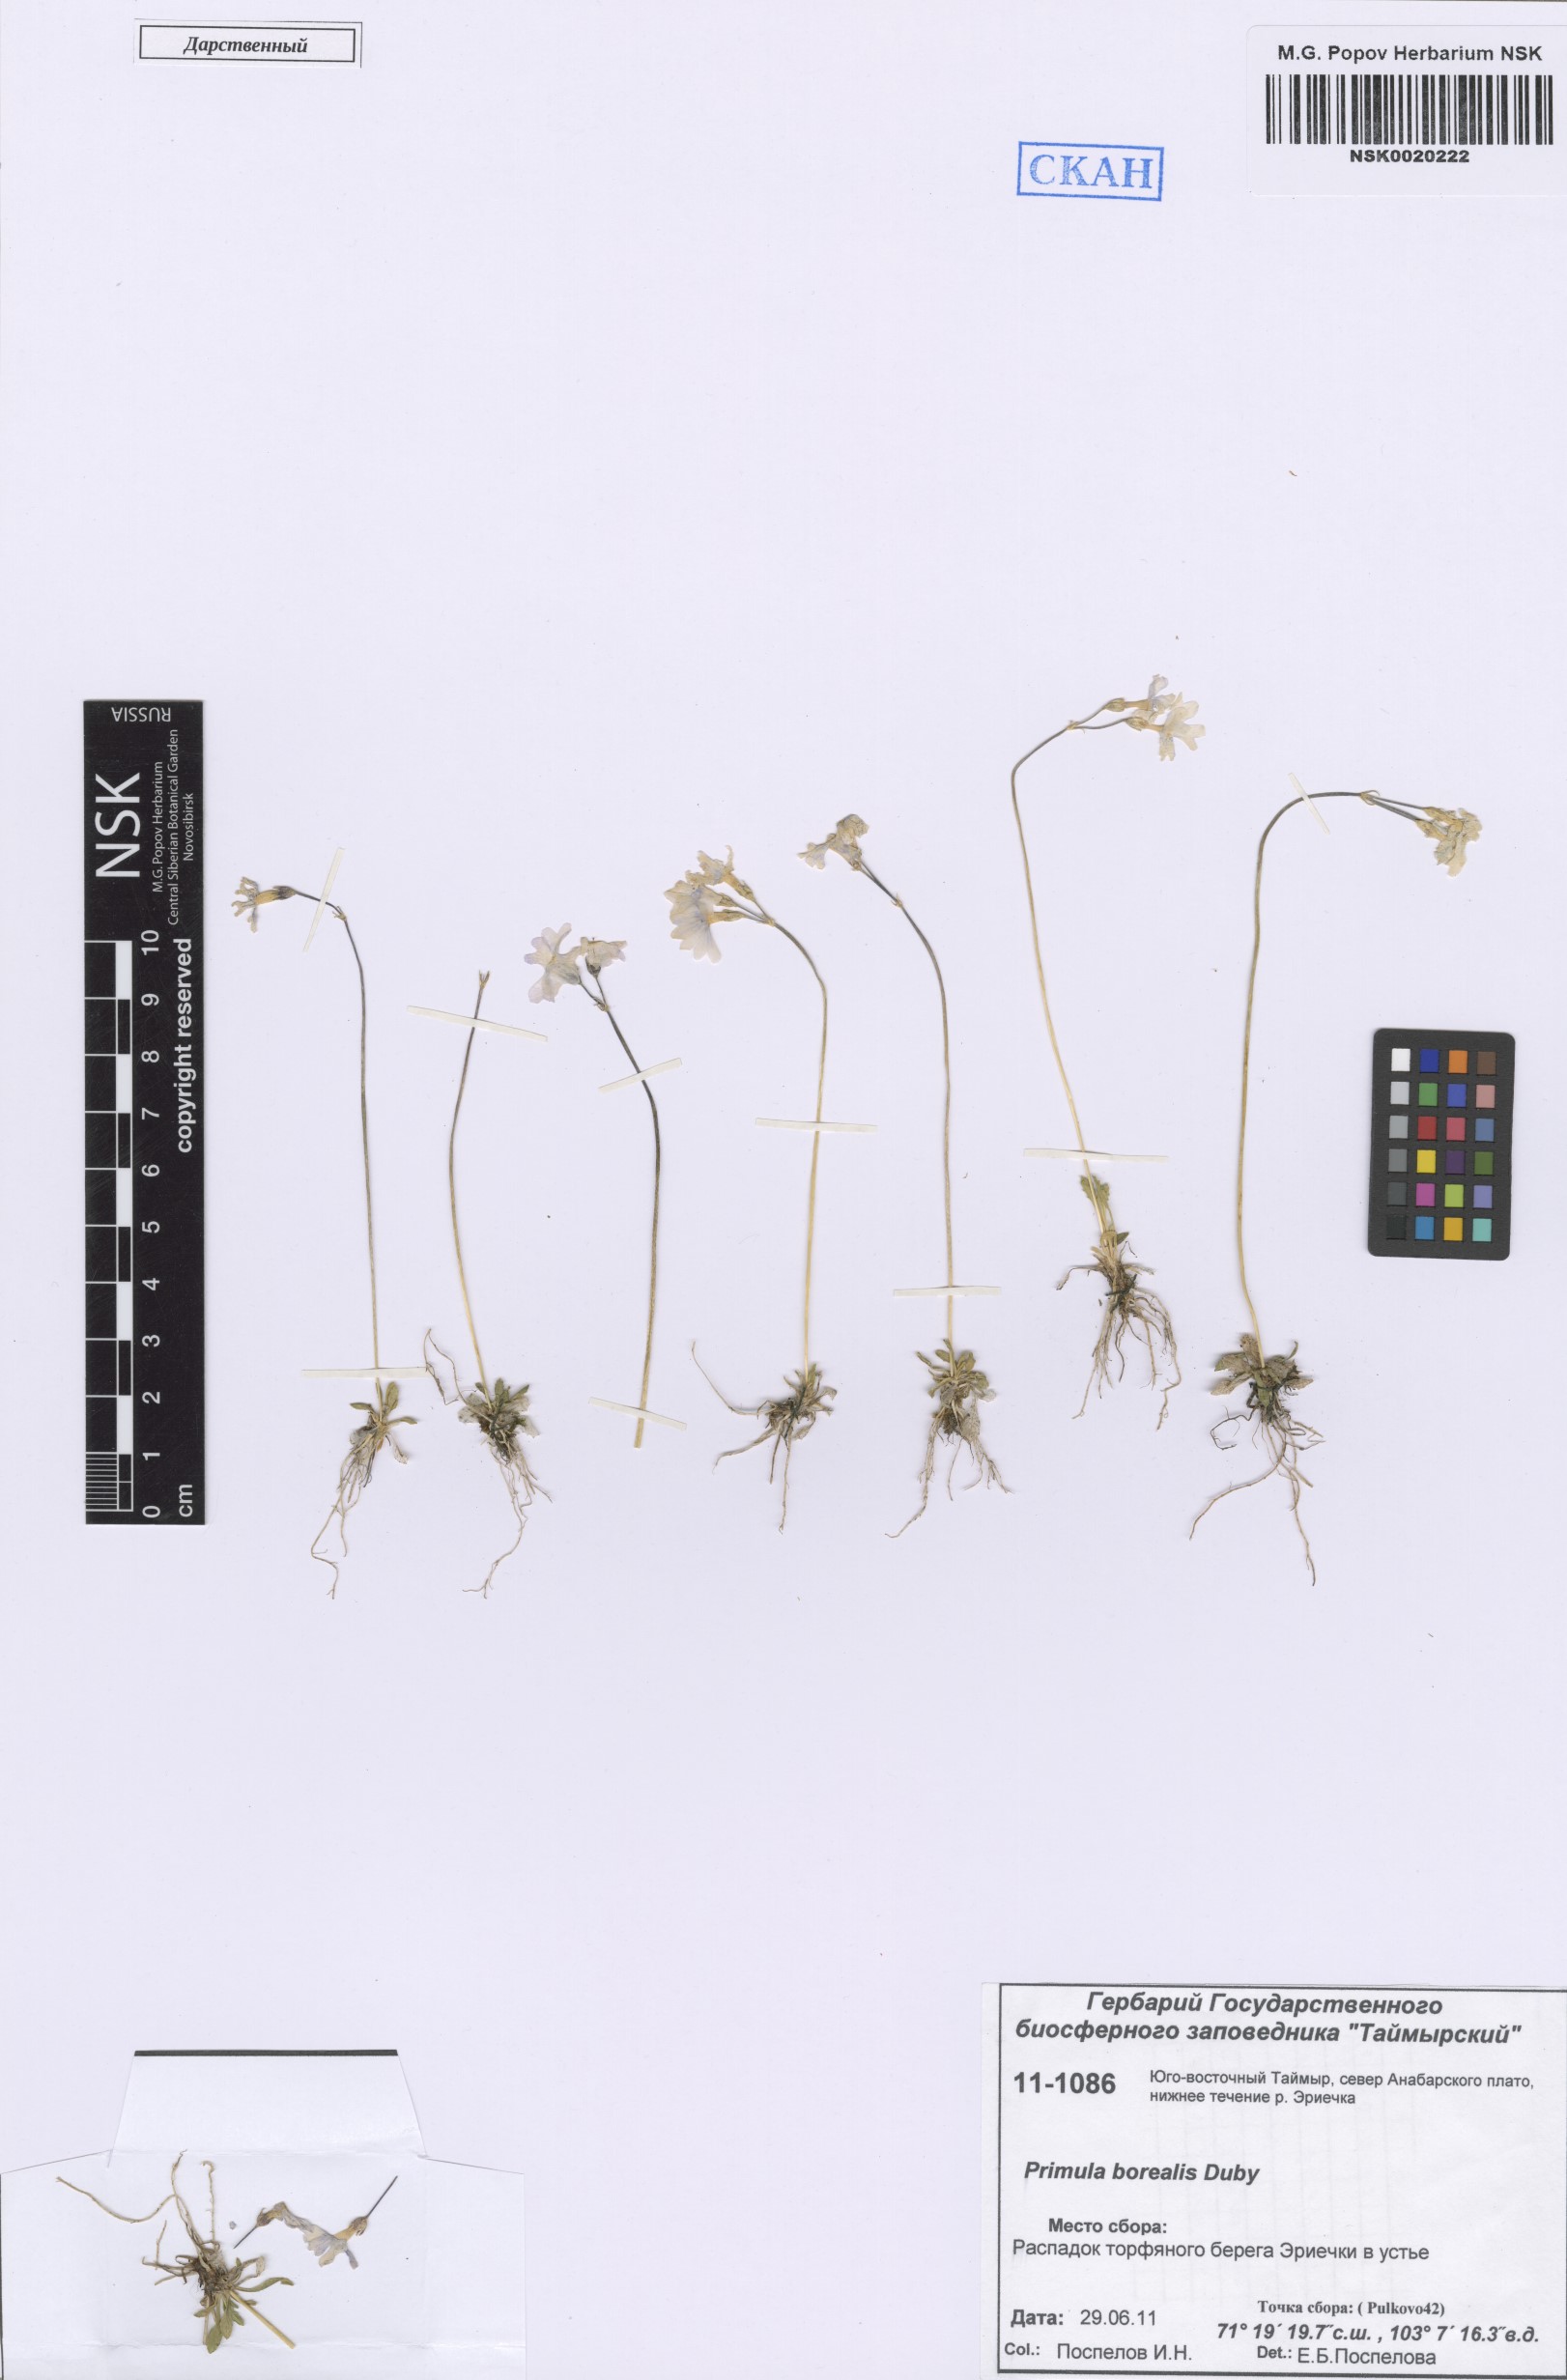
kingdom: Plantae
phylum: Tracheophyta
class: Magnoliopsida
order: Ericales
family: Primulaceae
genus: Primula
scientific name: Primula borealis
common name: Northern primrose
